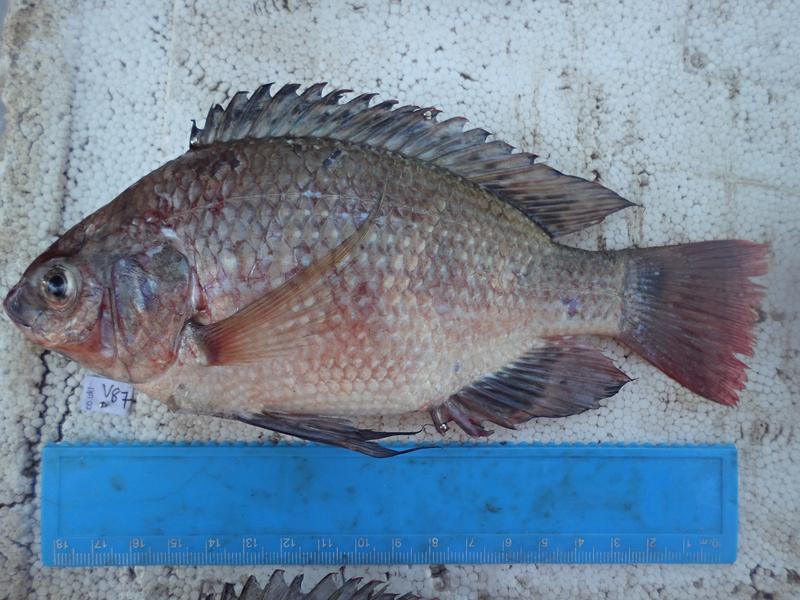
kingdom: Animalia
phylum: Chordata
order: Perciformes
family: Cichlidae
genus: Oreochromis
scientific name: Oreochromis esculentus
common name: Carp
